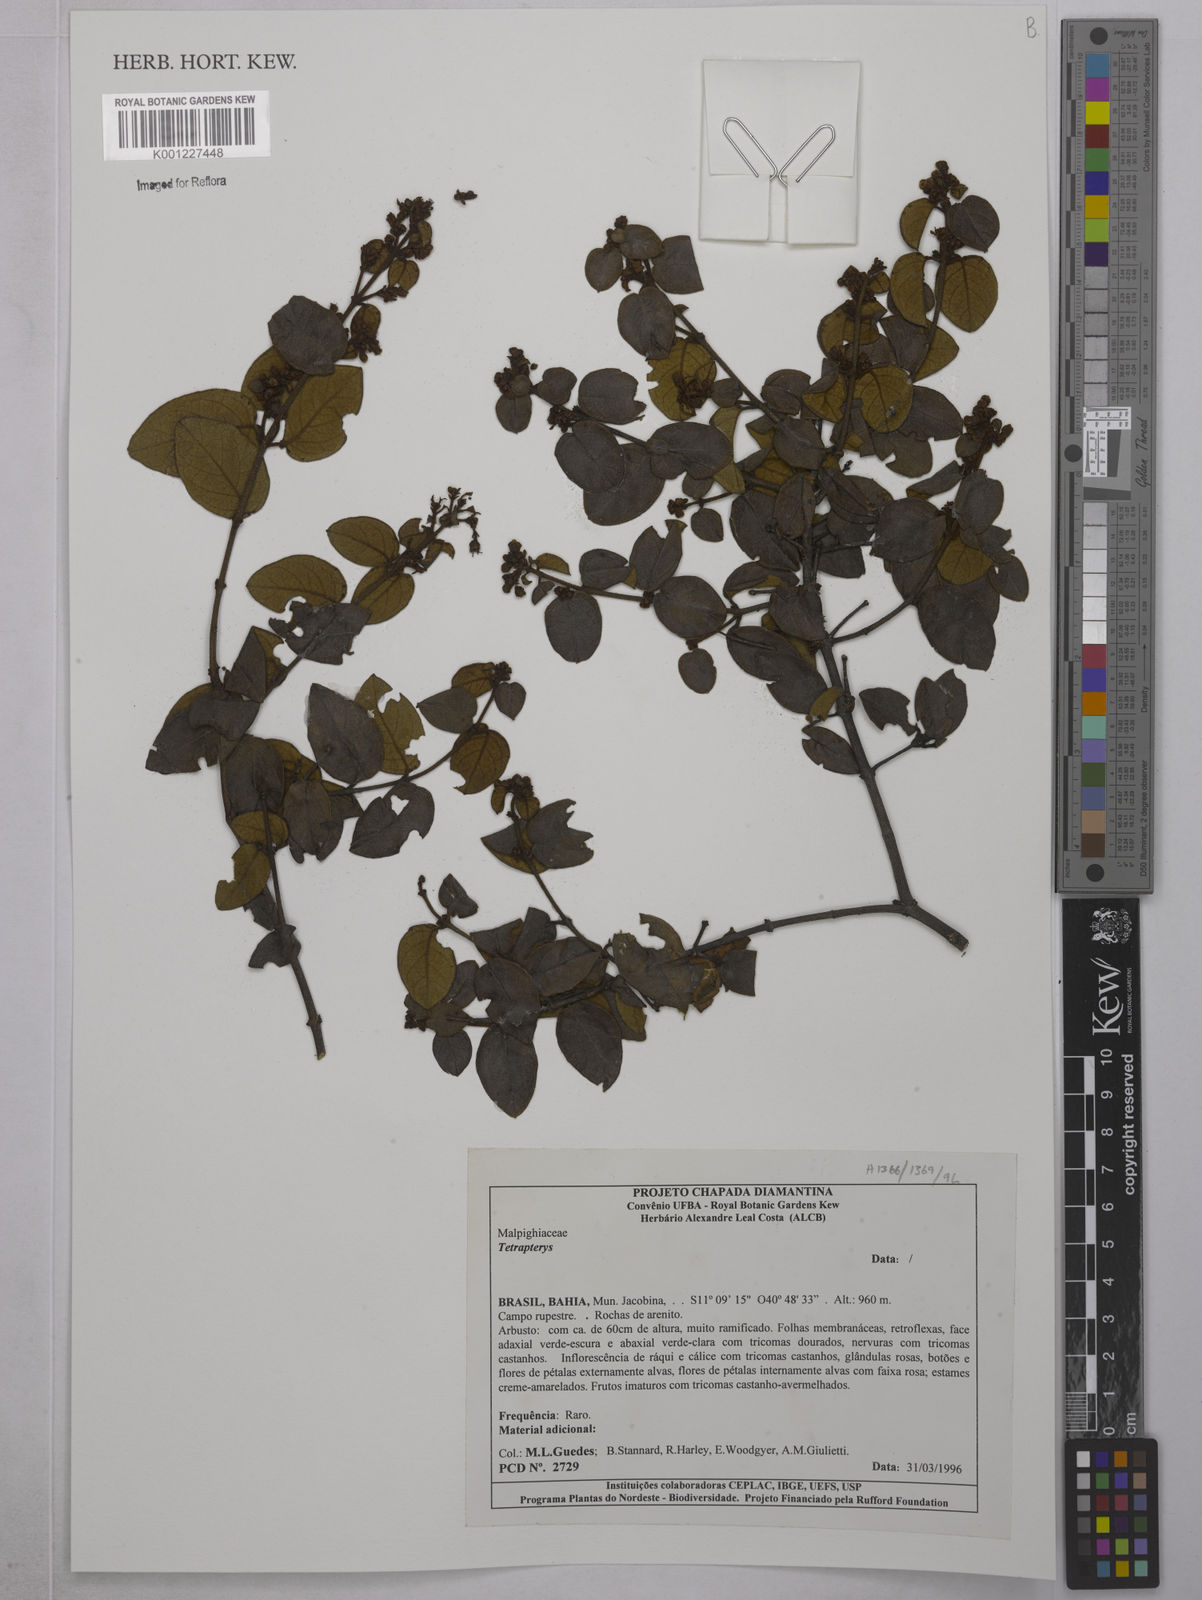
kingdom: Plantae
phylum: Tracheophyta
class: Magnoliopsida
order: Malpighiales
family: Malpighiaceae
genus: Tetrapterys
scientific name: Tetrapterys
